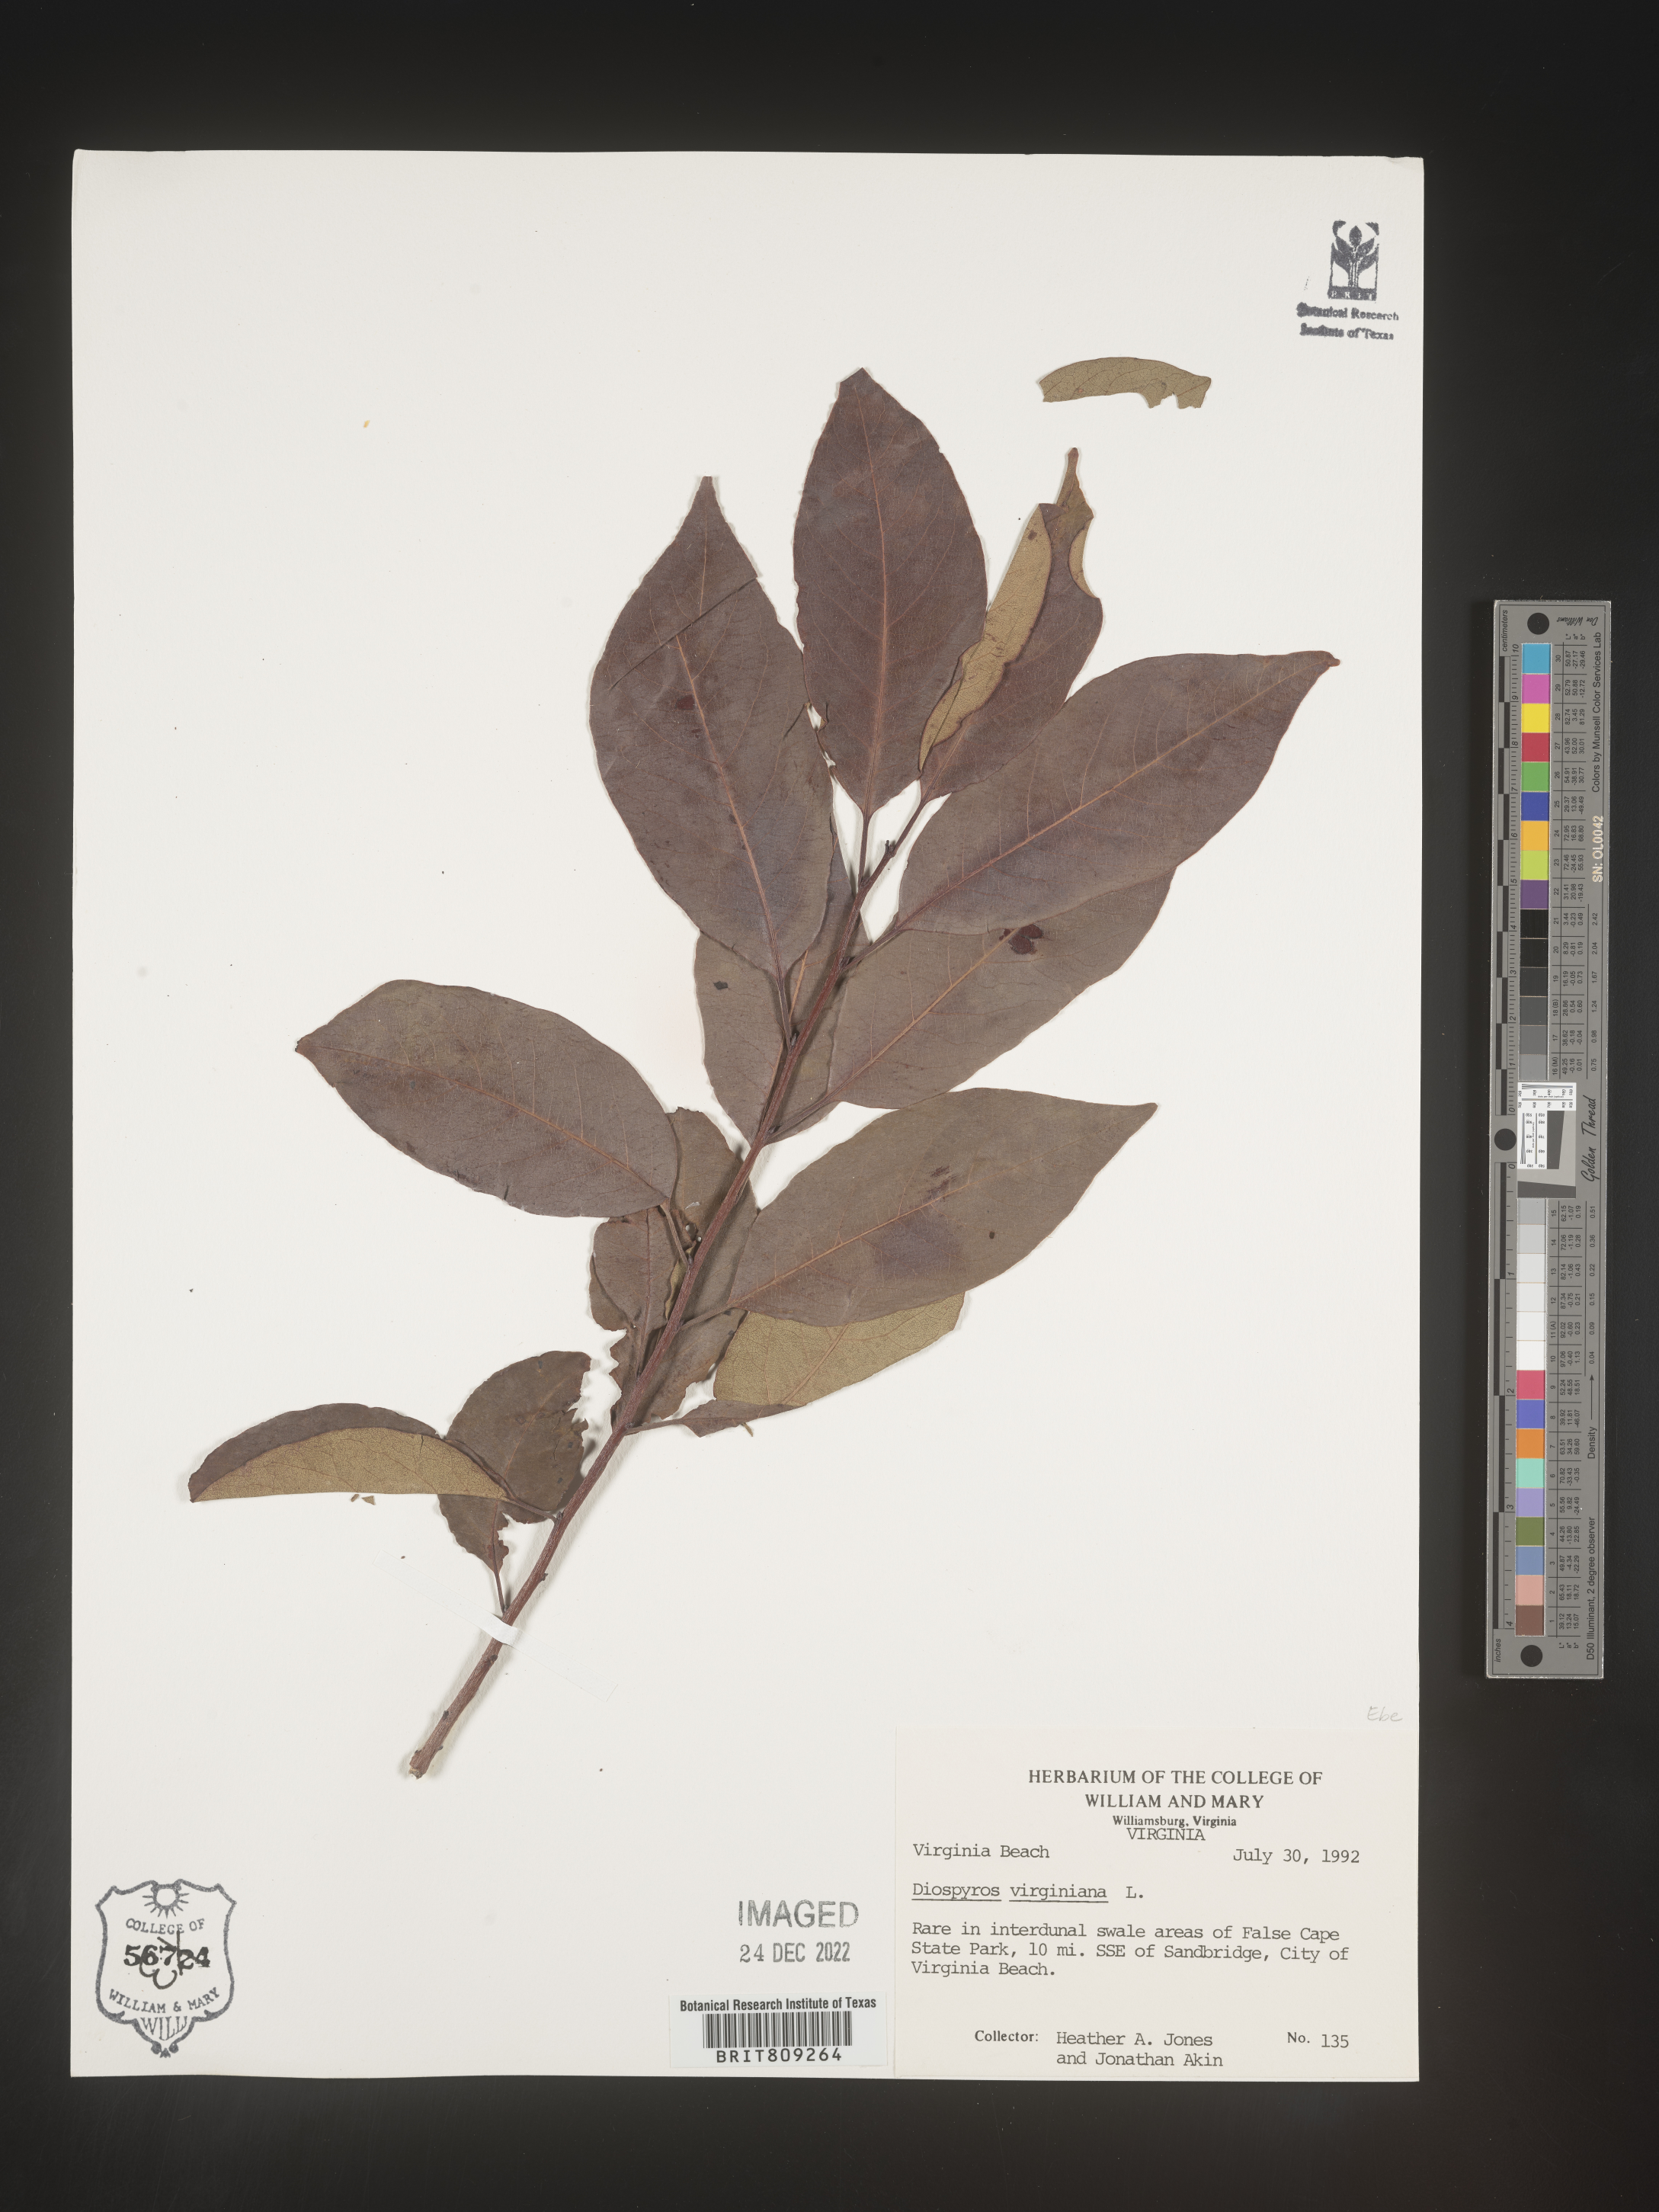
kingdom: Plantae
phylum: Tracheophyta
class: Magnoliopsida
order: Ericales
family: Ebenaceae
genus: Diospyros
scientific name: Diospyros virginiana
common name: Persimmon
